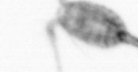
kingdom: Animalia
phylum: Arthropoda
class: Copepoda
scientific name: Copepoda
